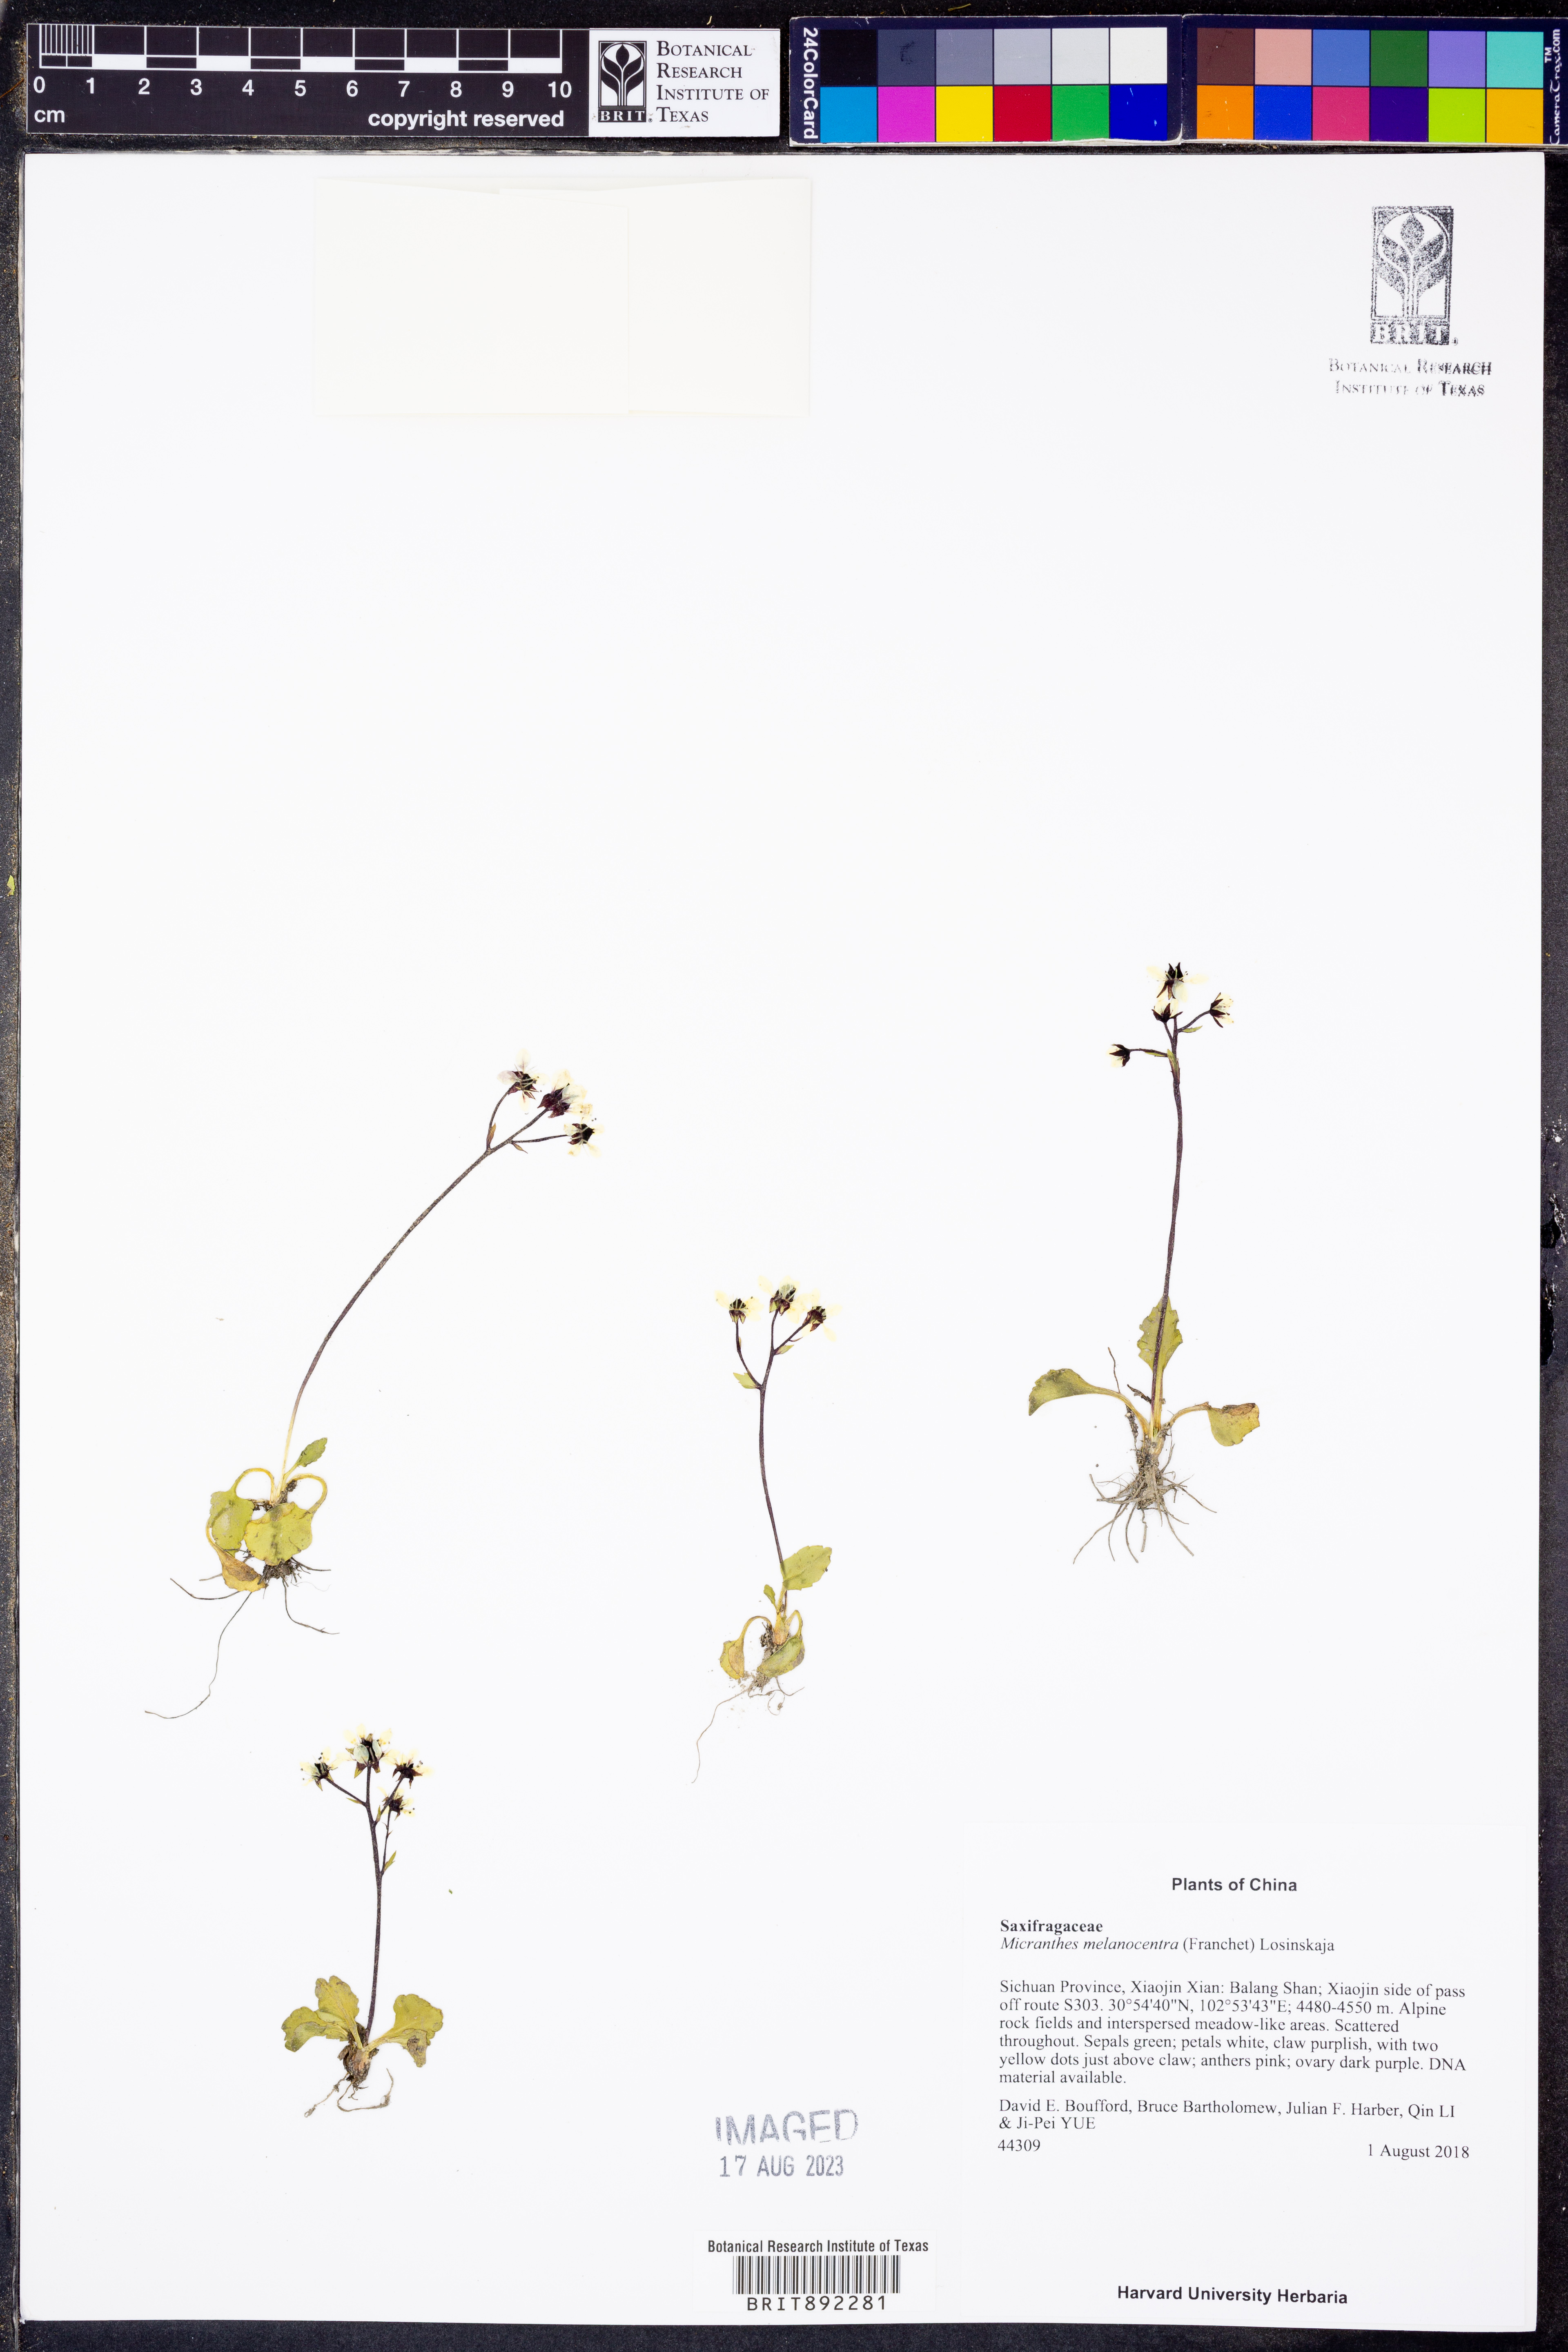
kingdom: Plantae
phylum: Tracheophyta
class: Magnoliopsida
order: Saxifragales
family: Saxifragaceae
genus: Micranthes
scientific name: Micranthes melanocentra
